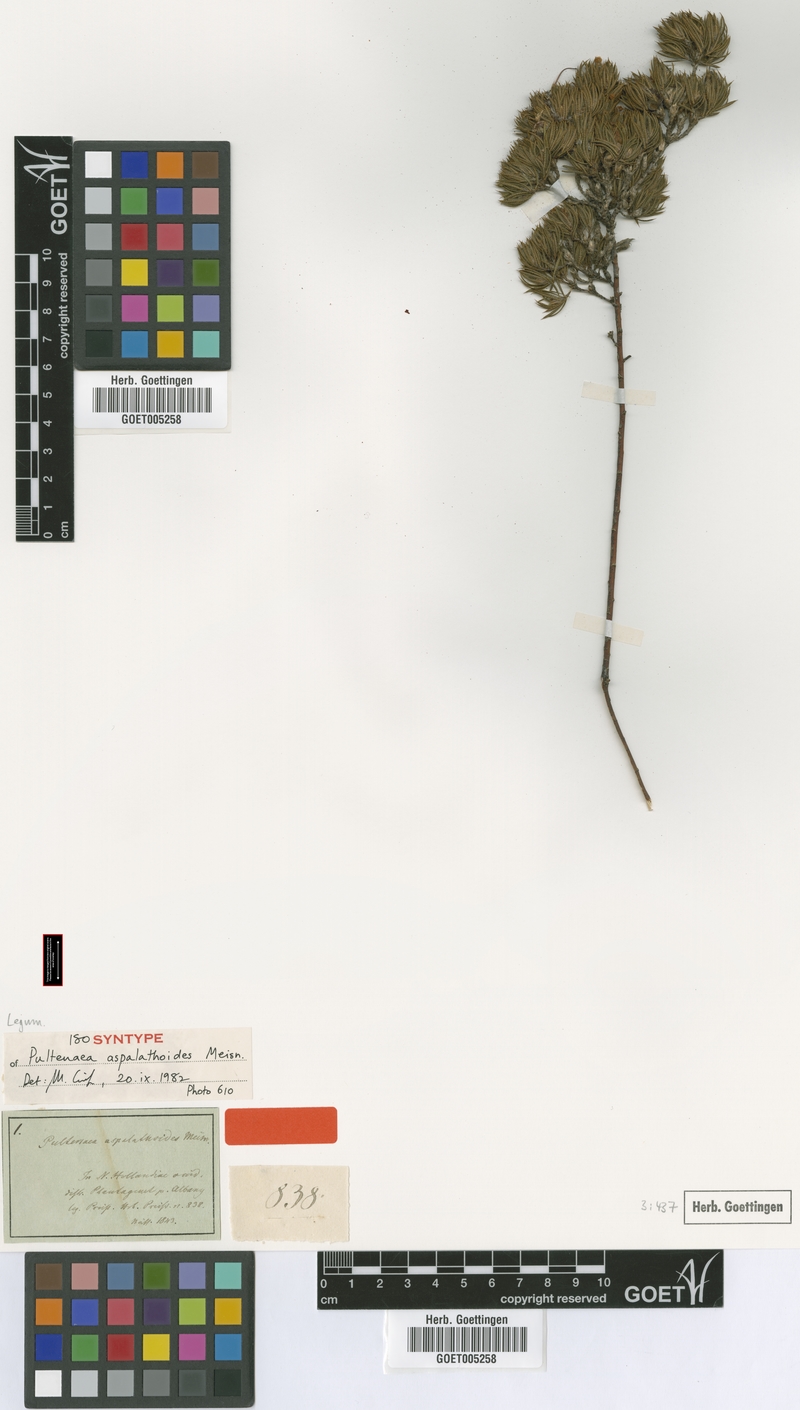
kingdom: Plantae
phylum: Tracheophyta
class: Magnoliopsida
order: Fabales
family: Fabaceae
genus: Pultenaea
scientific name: Pultenaea aspalathoides
